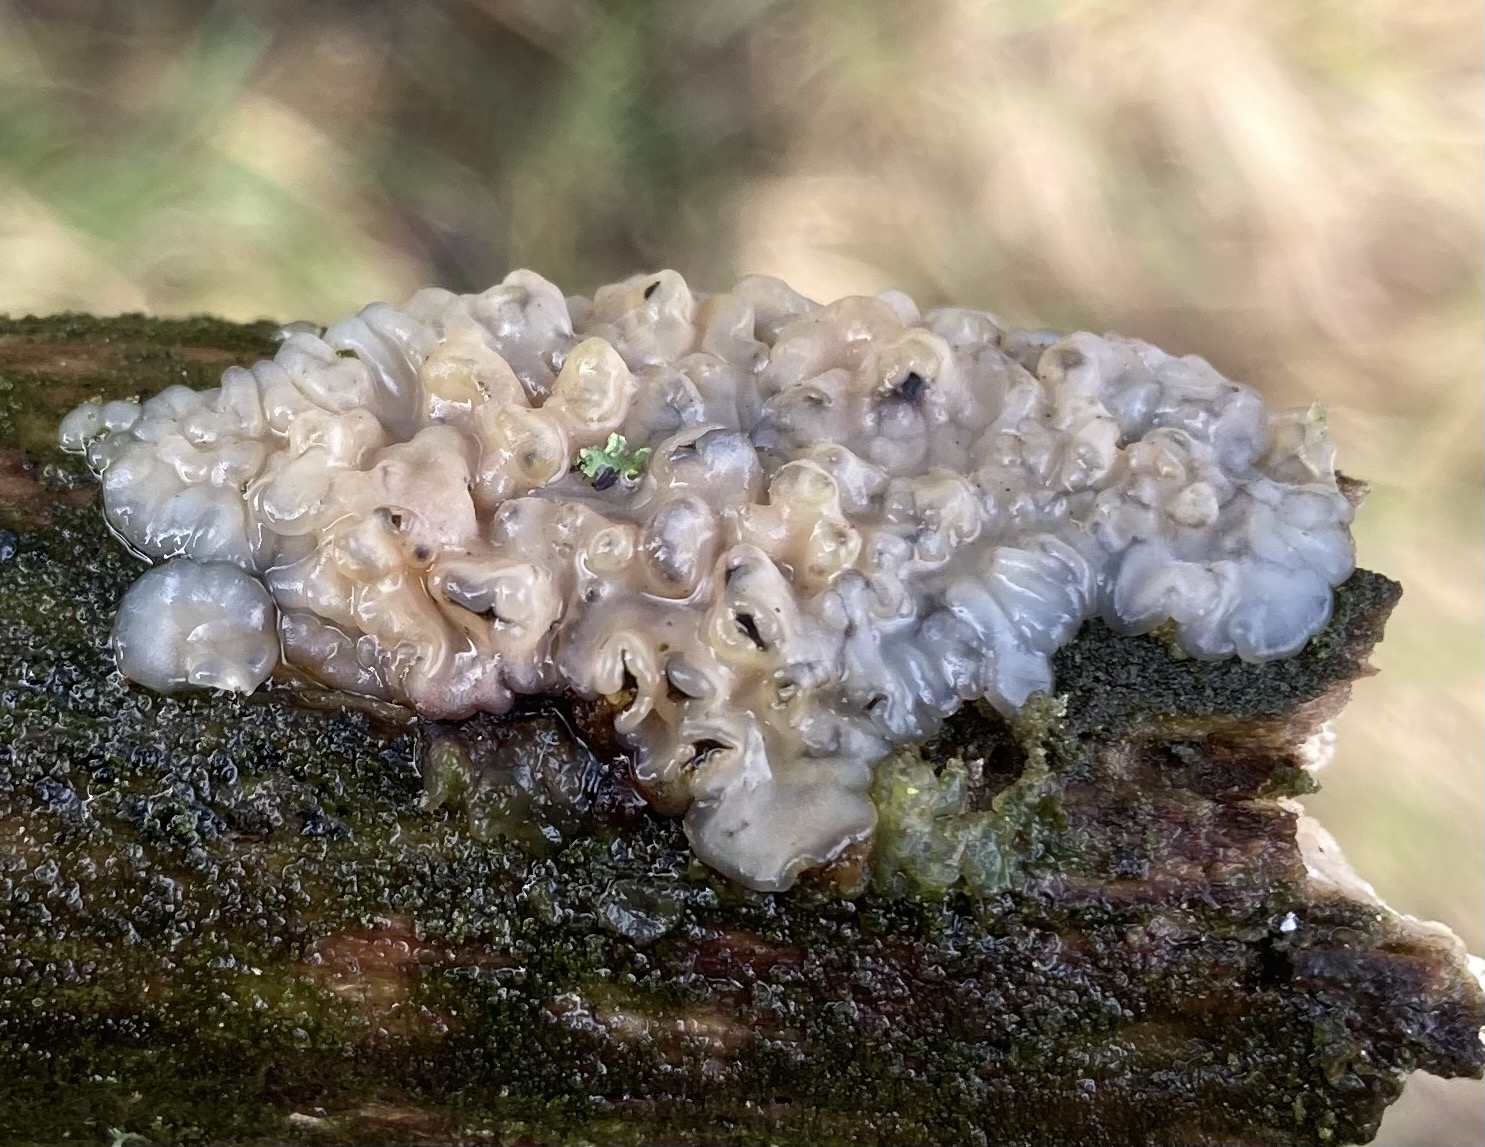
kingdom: Fungi
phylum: Basidiomycota
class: Agaricomycetes
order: Auriculariales
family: Auriculariaceae
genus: Exidia
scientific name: Exidia thuretiana
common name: hvidlig bævretop
